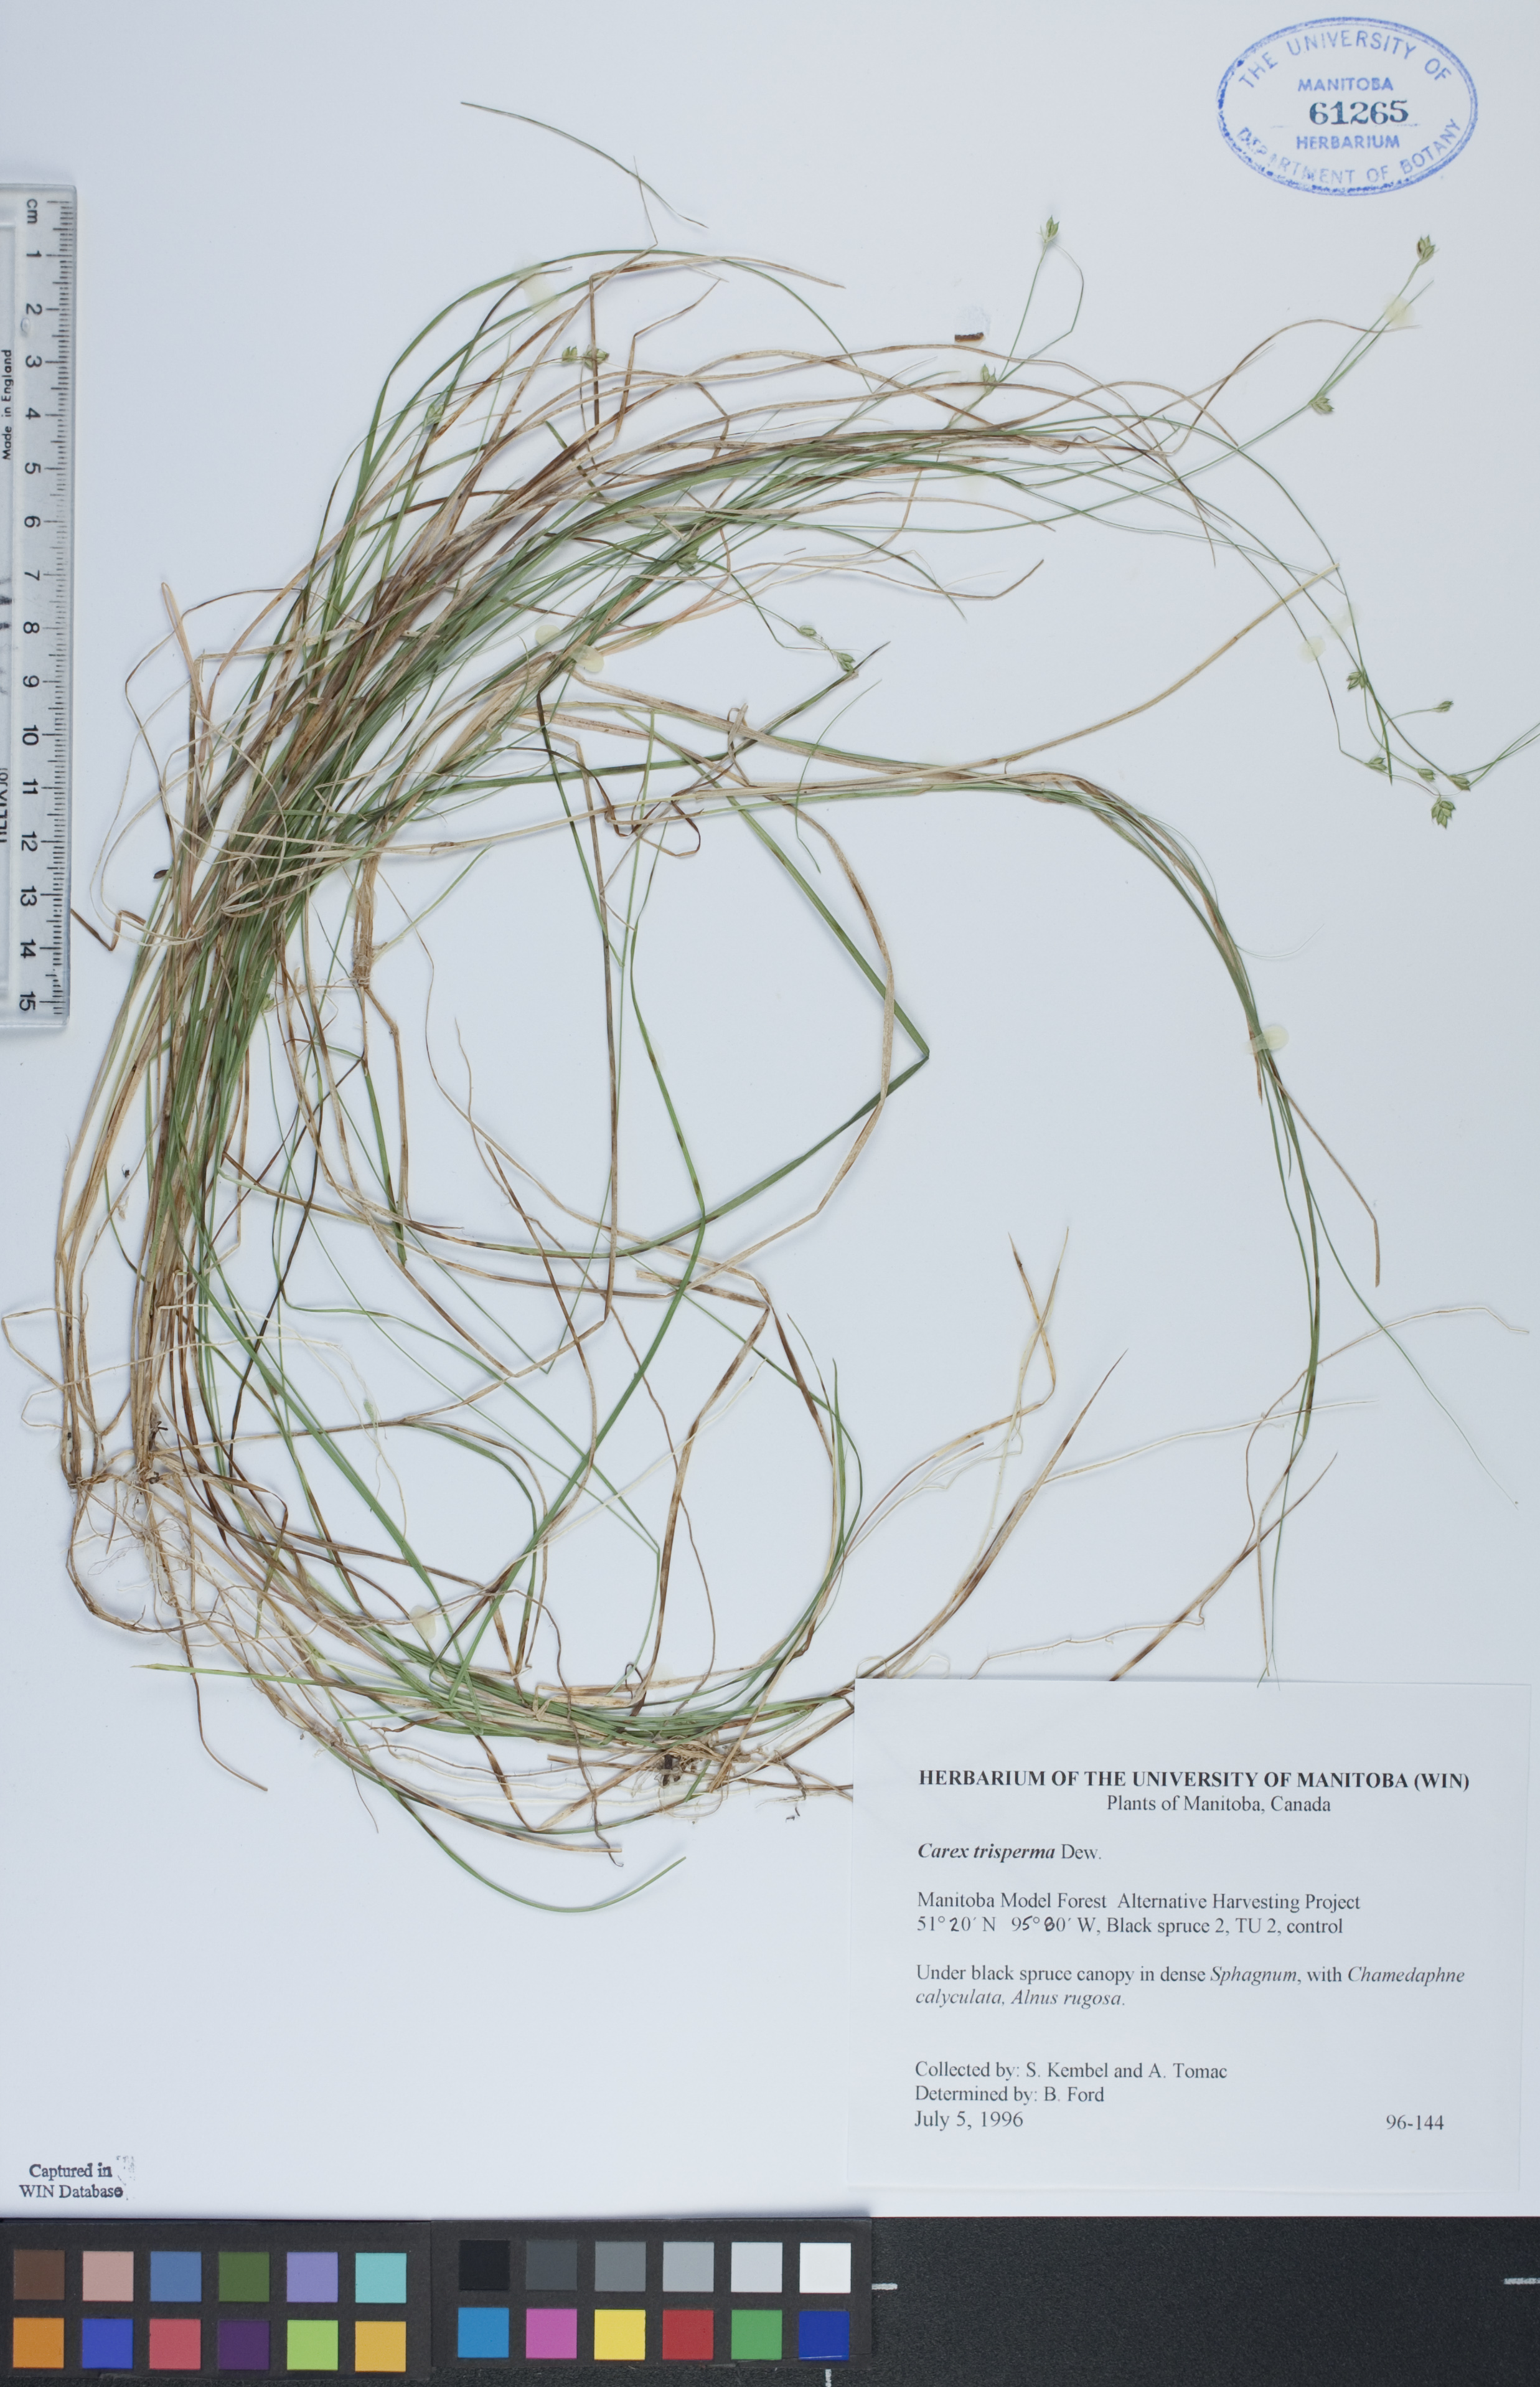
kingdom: Plantae
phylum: Tracheophyta
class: Liliopsida
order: Poales
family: Cyperaceae
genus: Carex
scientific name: Carex trisperma
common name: Three-seeded sedge
